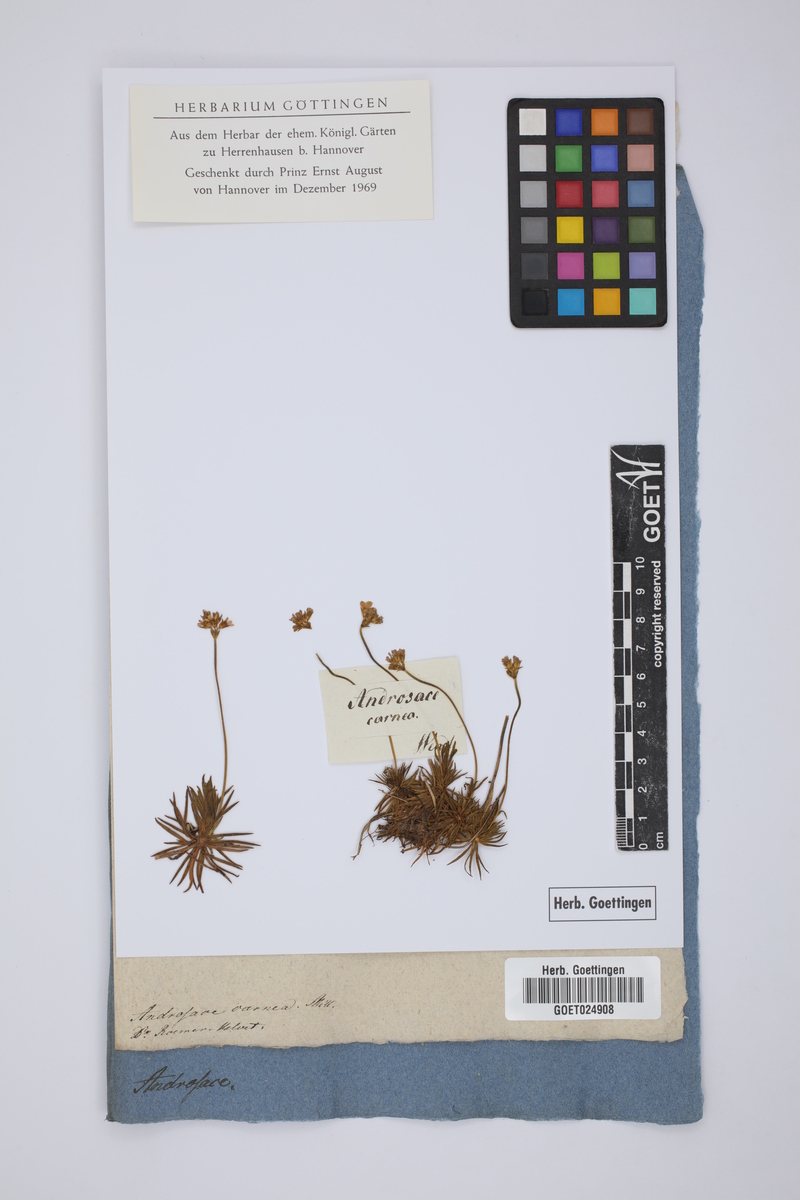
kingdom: Plantae
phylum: Tracheophyta
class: Magnoliopsida
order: Ericales
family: Primulaceae
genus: Androsace
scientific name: Androsace laggeri
